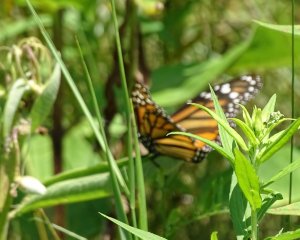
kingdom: Animalia
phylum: Arthropoda
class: Insecta
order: Lepidoptera
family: Nymphalidae
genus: Danaus
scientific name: Danaus plexippus
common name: Monarch
